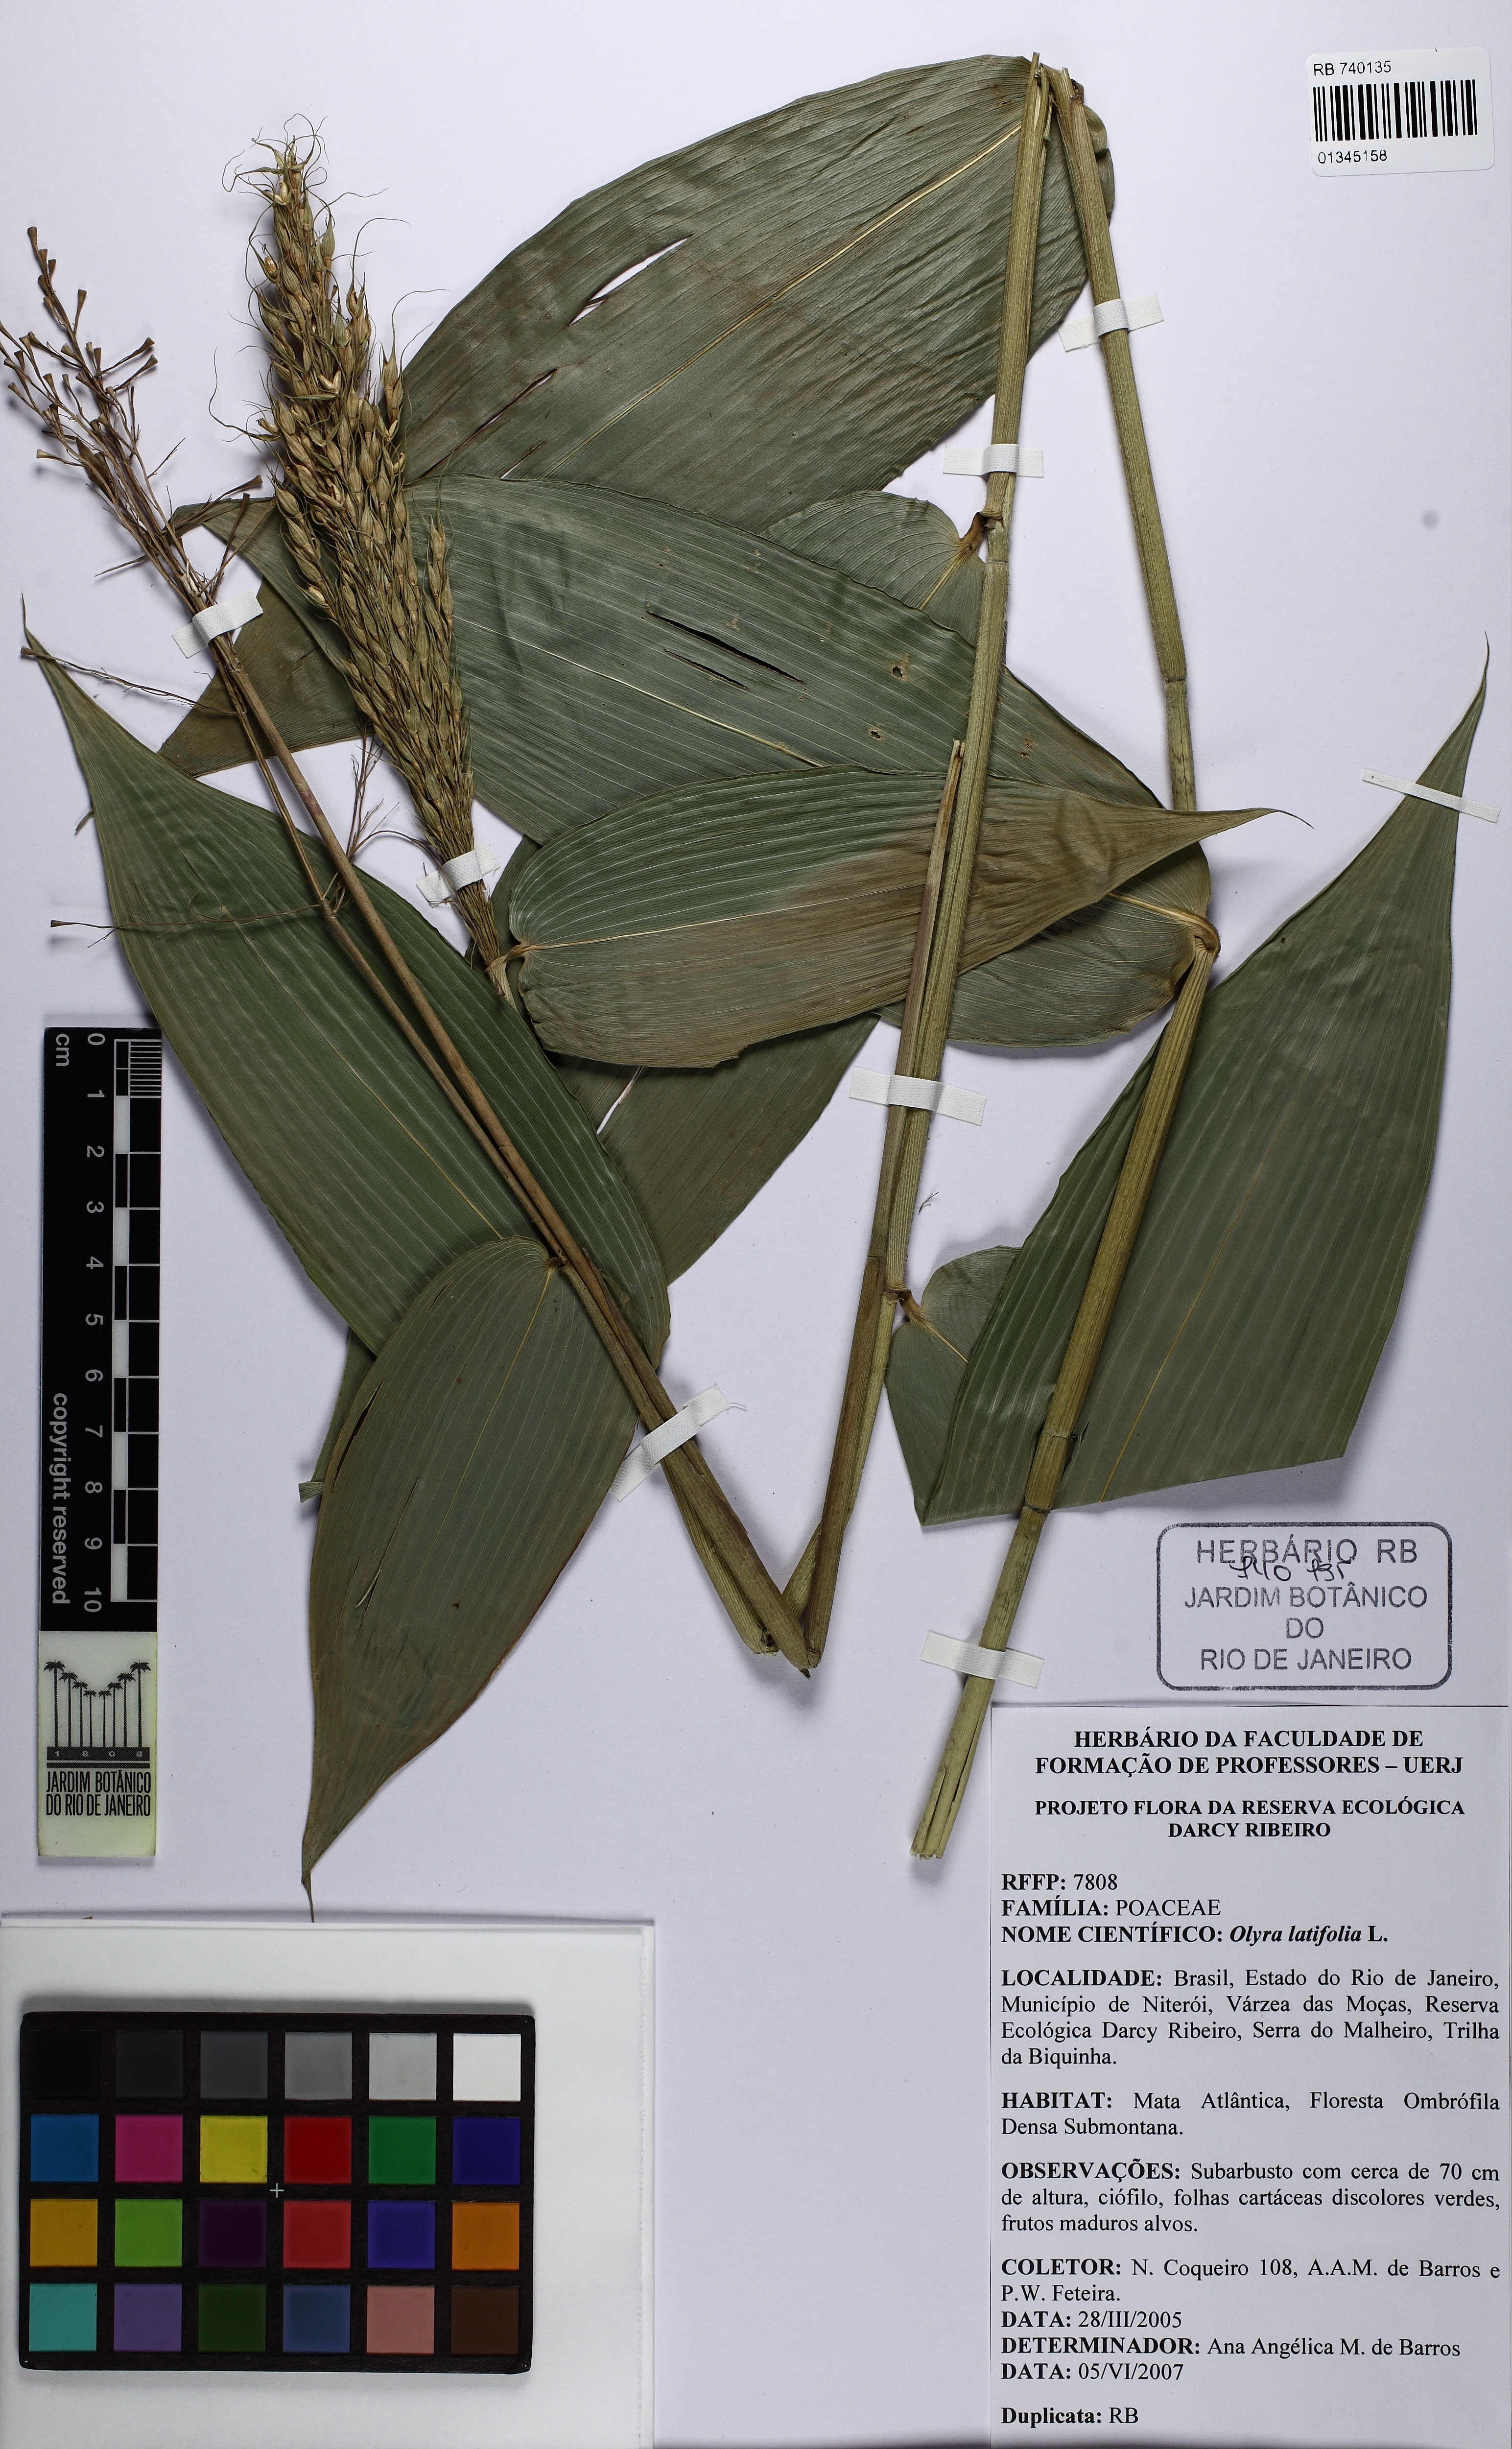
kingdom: Plantae
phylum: Tracheophyta
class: Liliopsida
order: Poales
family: Poaceae
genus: Olyra
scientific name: Olyra latifolia
